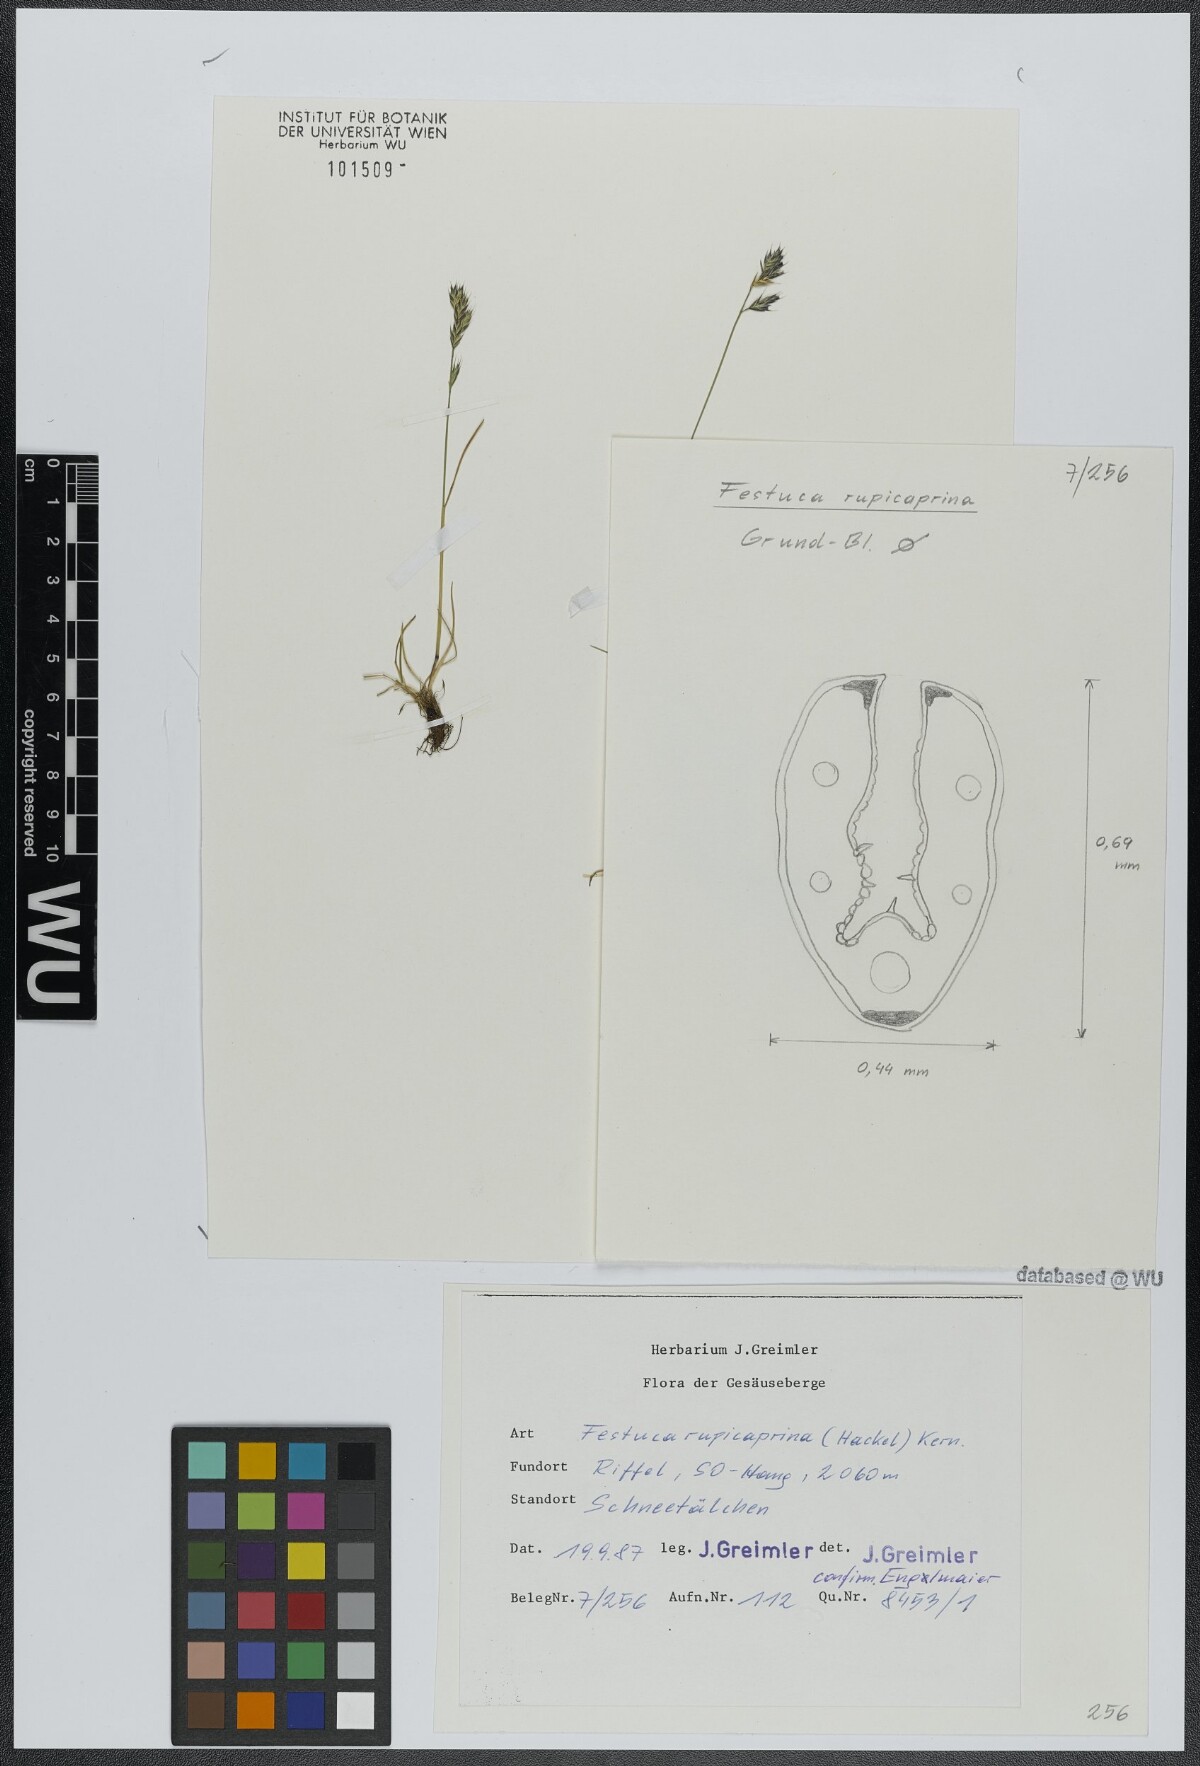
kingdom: Plantae
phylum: Tracheophyta
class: Liliopsida
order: Poales
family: Poaceae
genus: Festuca
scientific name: Festuca rupicaprina
